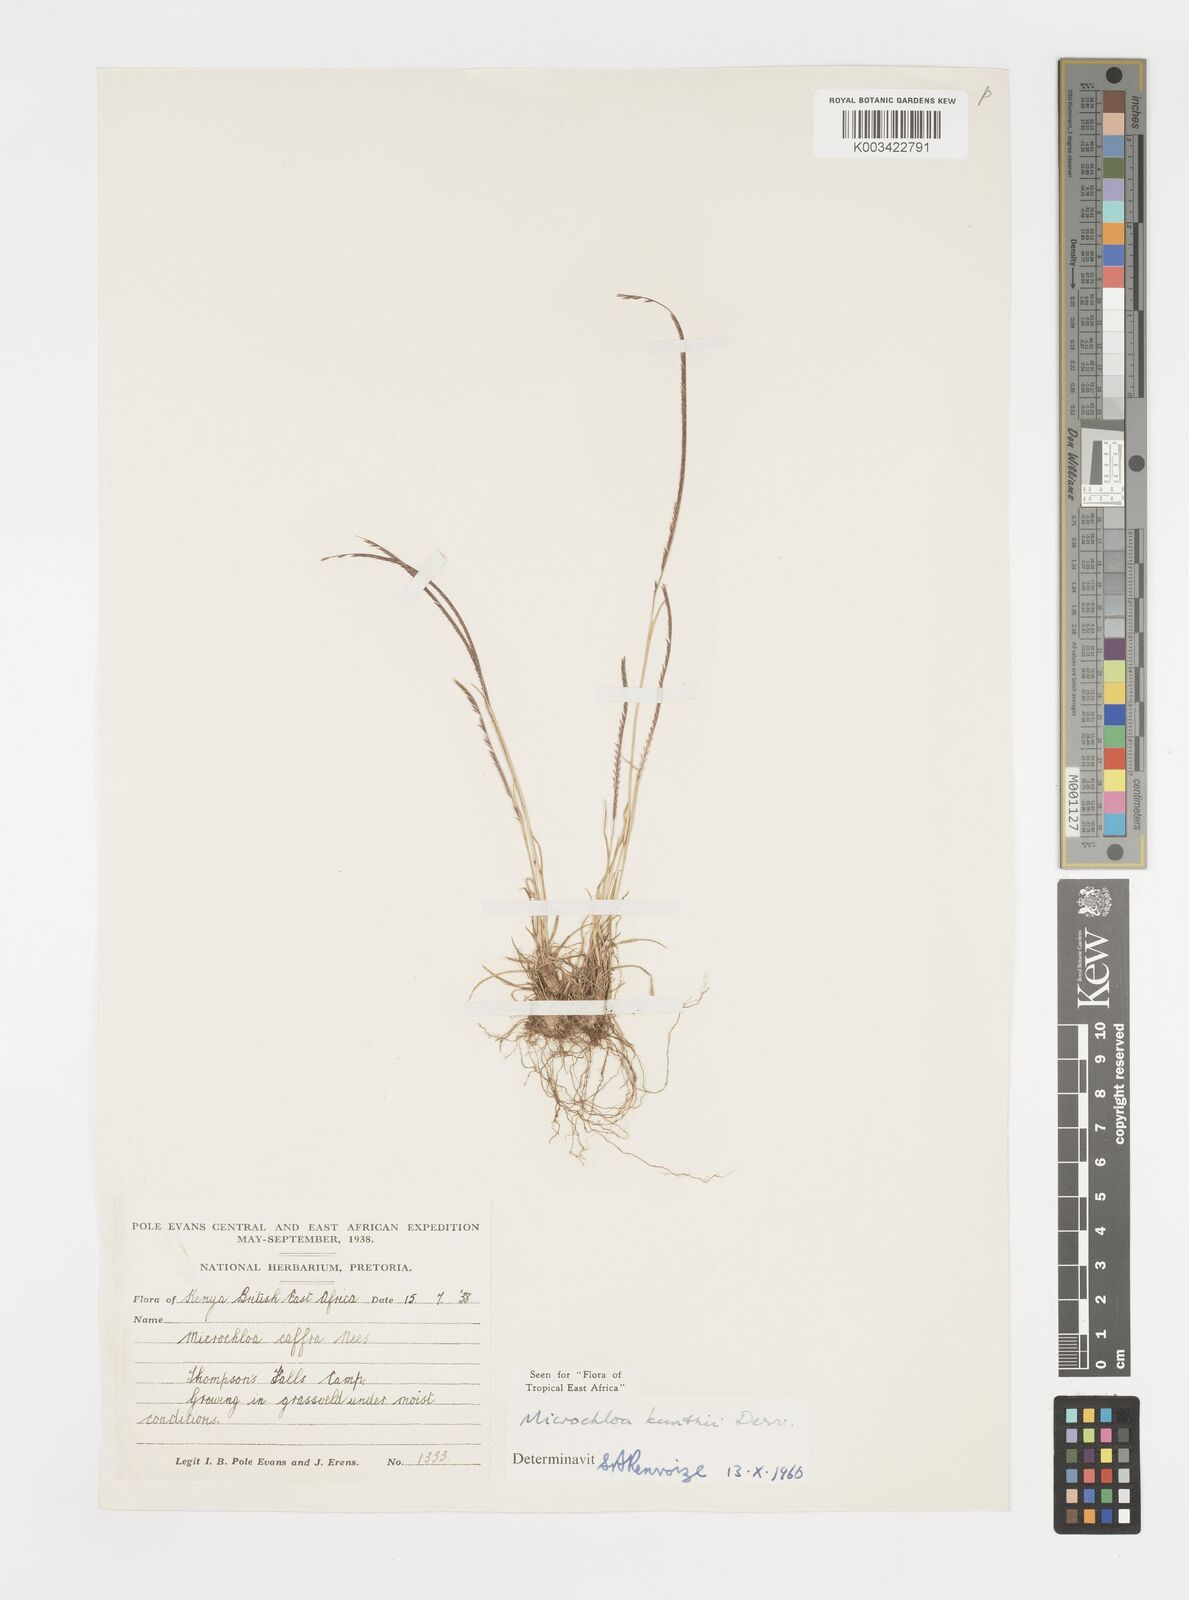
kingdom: Plantae
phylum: Tracheophyta
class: Liliopsida
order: Poales
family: Poaceae
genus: Microchloa
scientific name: Microchloa kunthii
